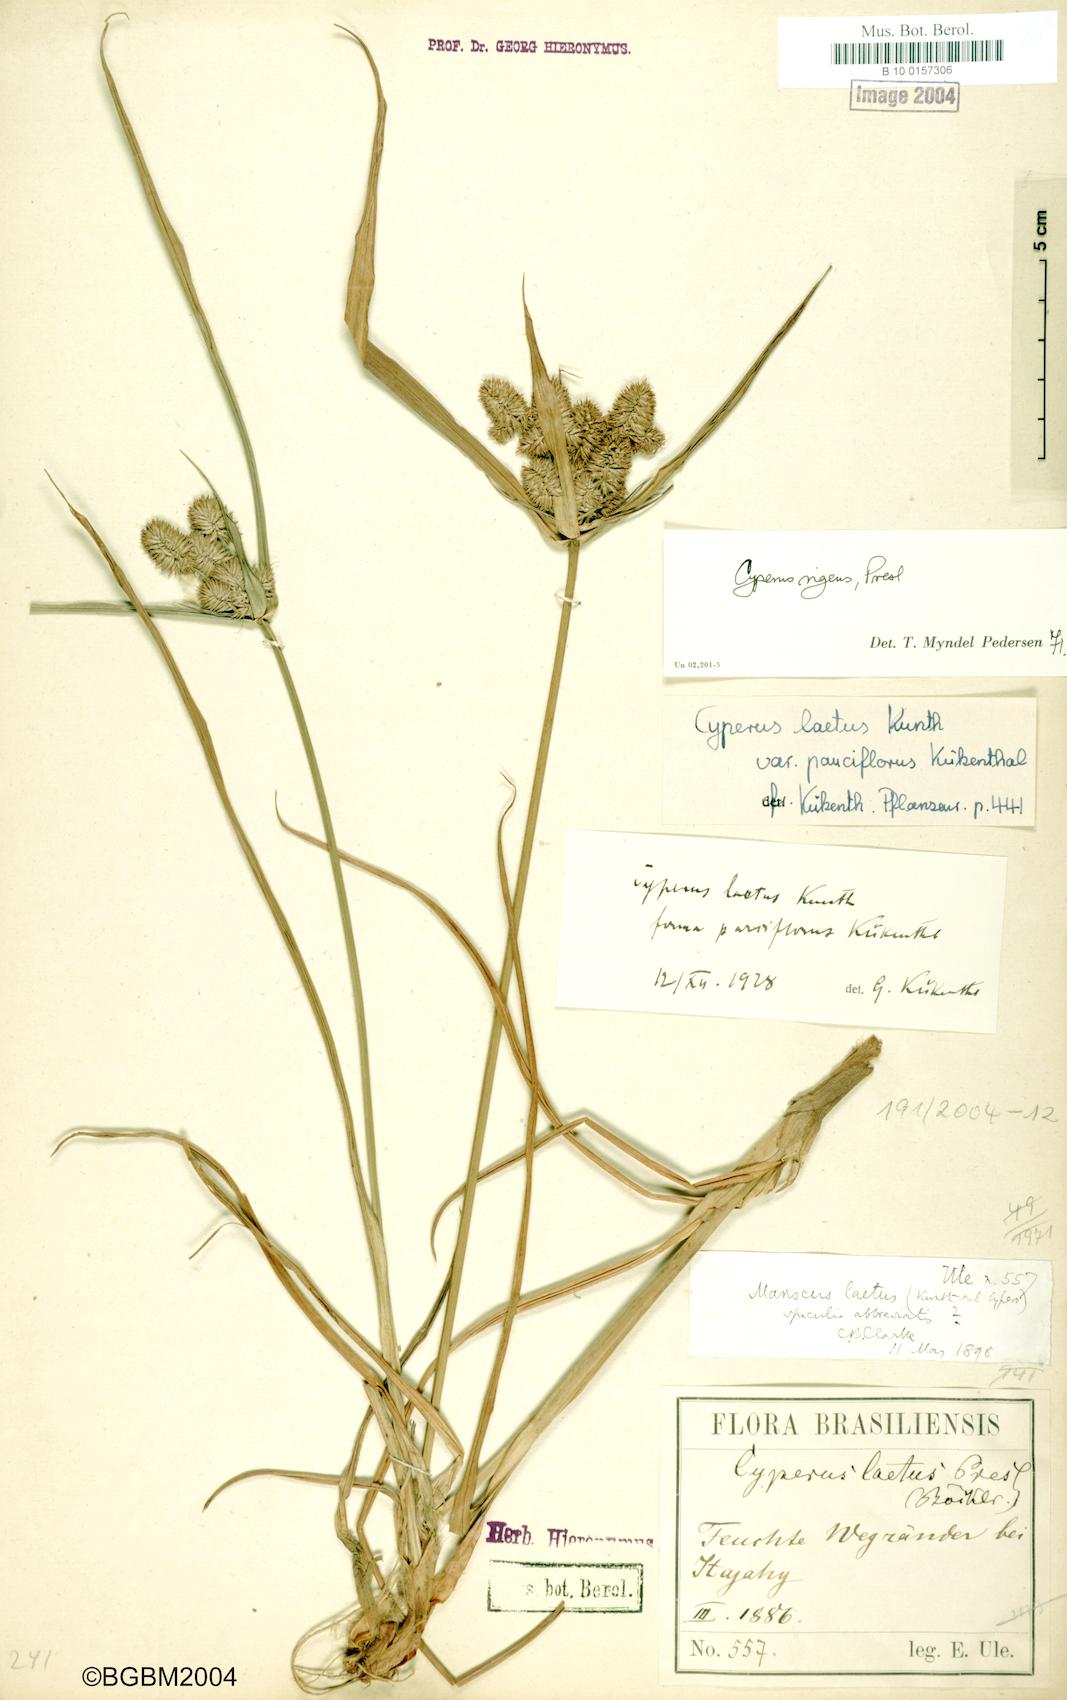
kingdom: Plantae
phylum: Tracheophyta
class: Liliopsida
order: Poales
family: Cyperaceae
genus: Cyperus
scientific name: Cyperus rigens
